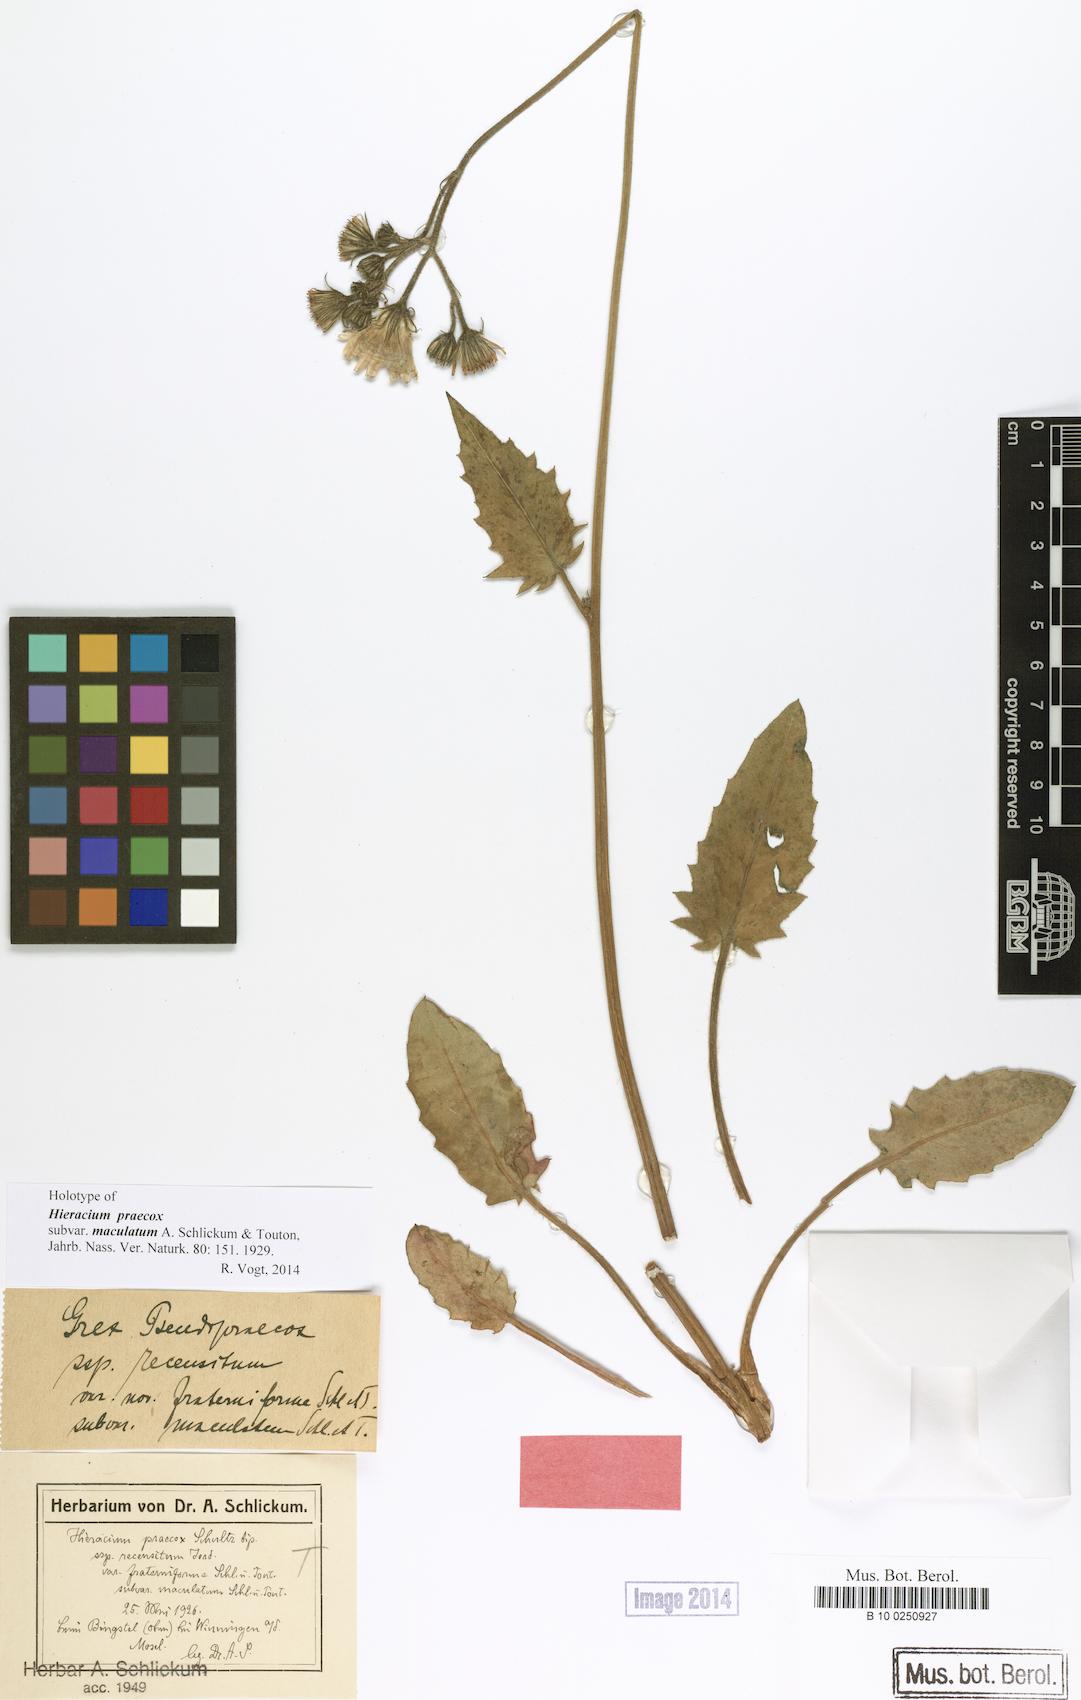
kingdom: Plantae
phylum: Tracheophyta
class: Magnoliopsida
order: Asterales
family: Asteraceae
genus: Hieracium
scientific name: Hieracium praecox
